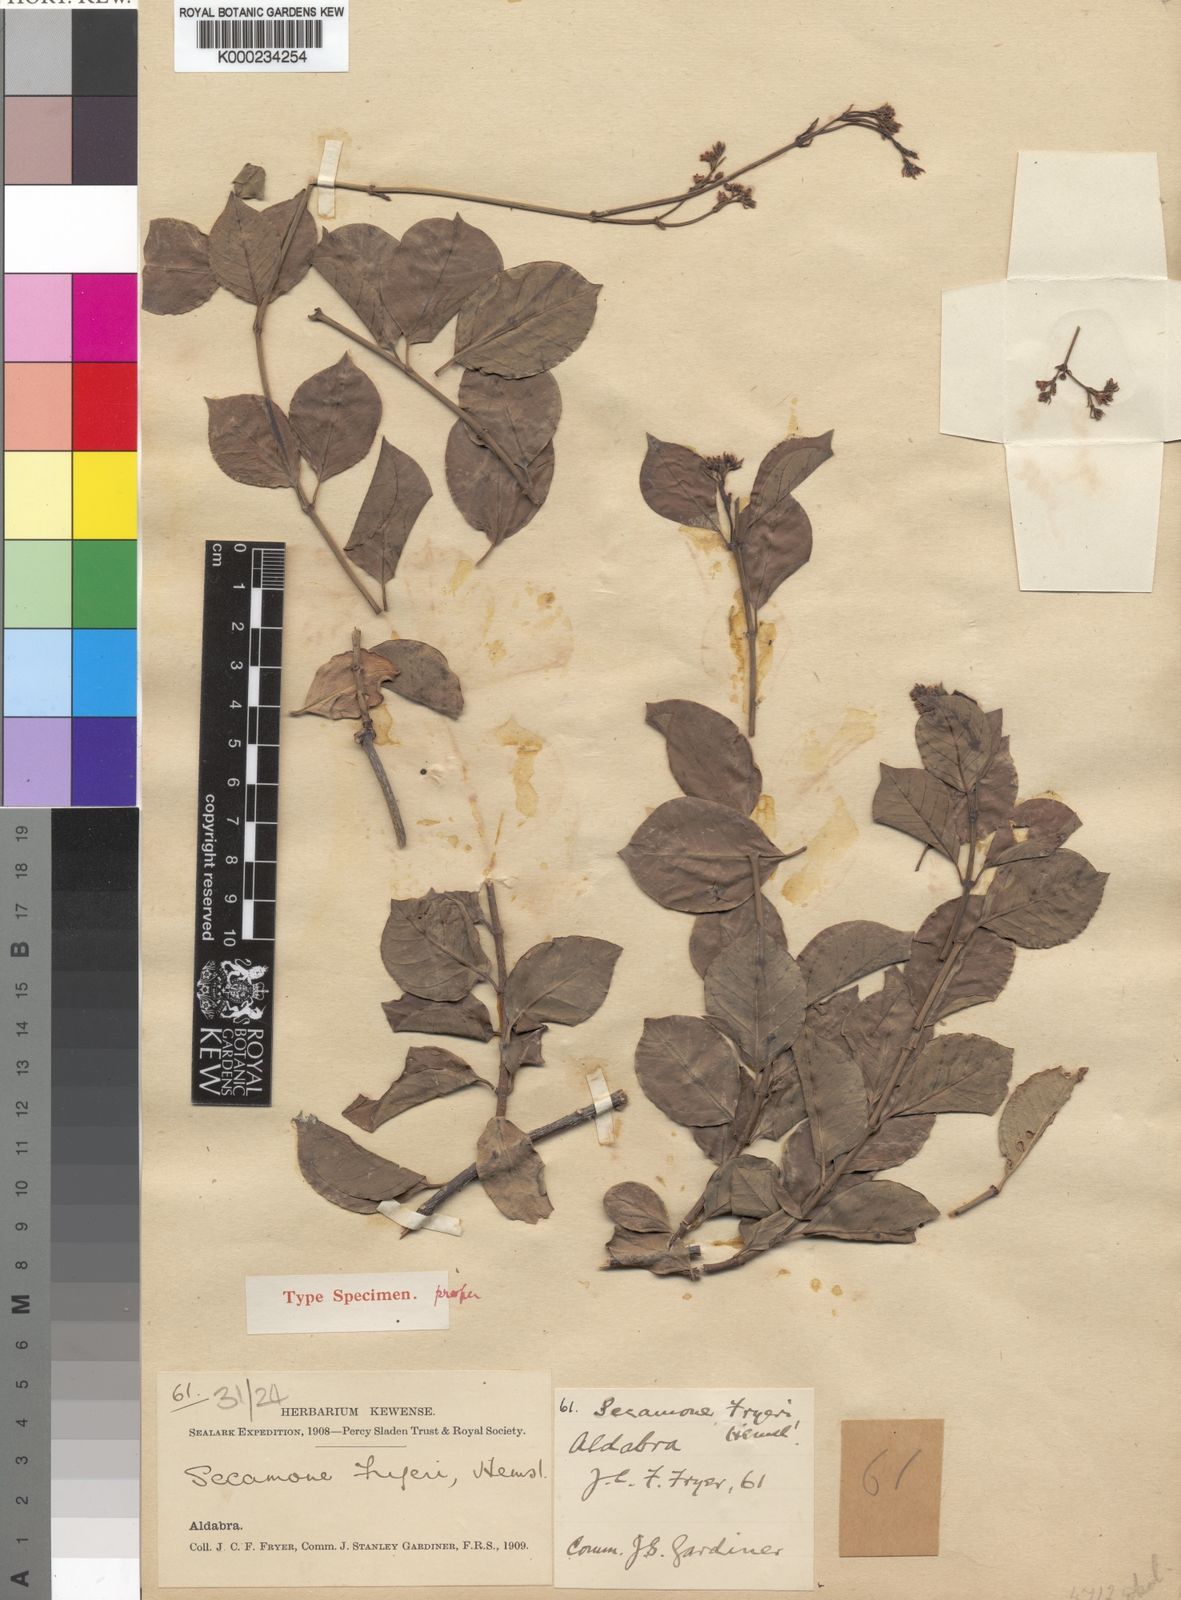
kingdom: Plantae
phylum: Tracheophyta
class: Magnoliopsida
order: Gentianales
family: Apocynaceae
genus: Secamone
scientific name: Secamone pachystigma
